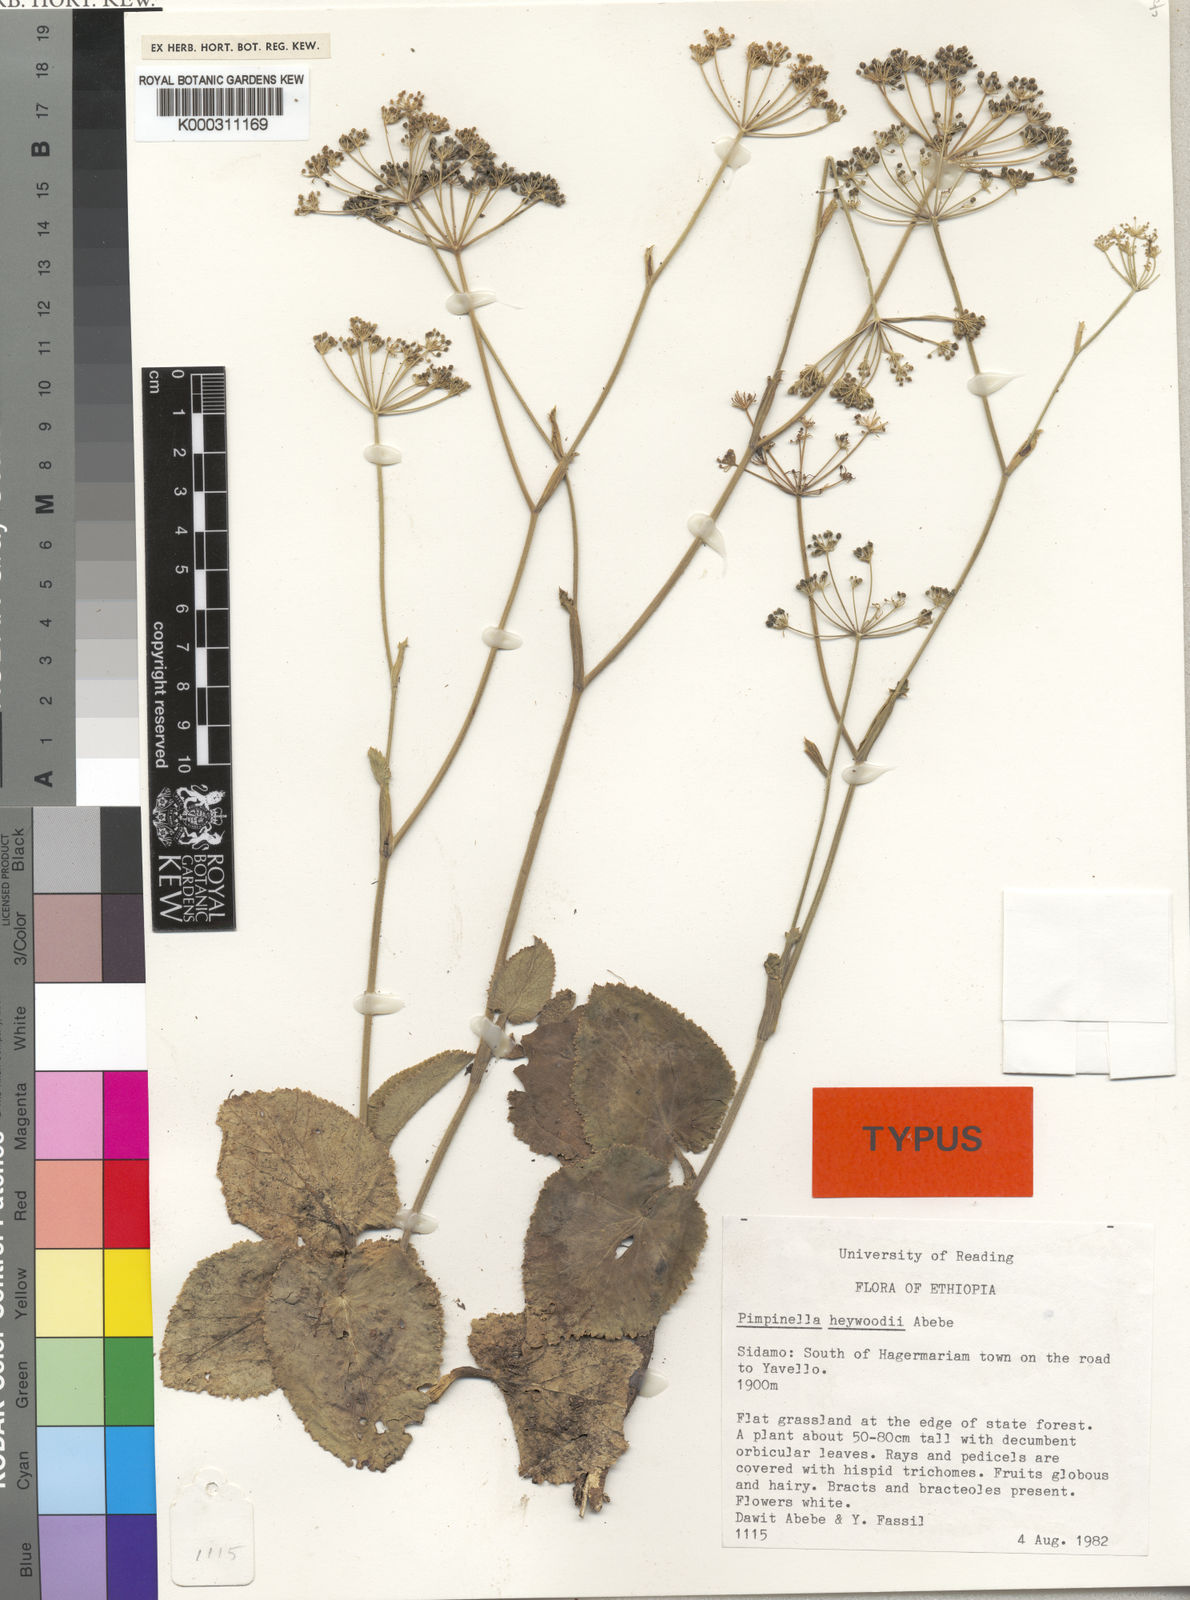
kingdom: Plantae
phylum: Tracheophyta
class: Magnoliopsida
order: Apiales
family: Apiaceae
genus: Pimpinella
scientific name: Pimpinella
